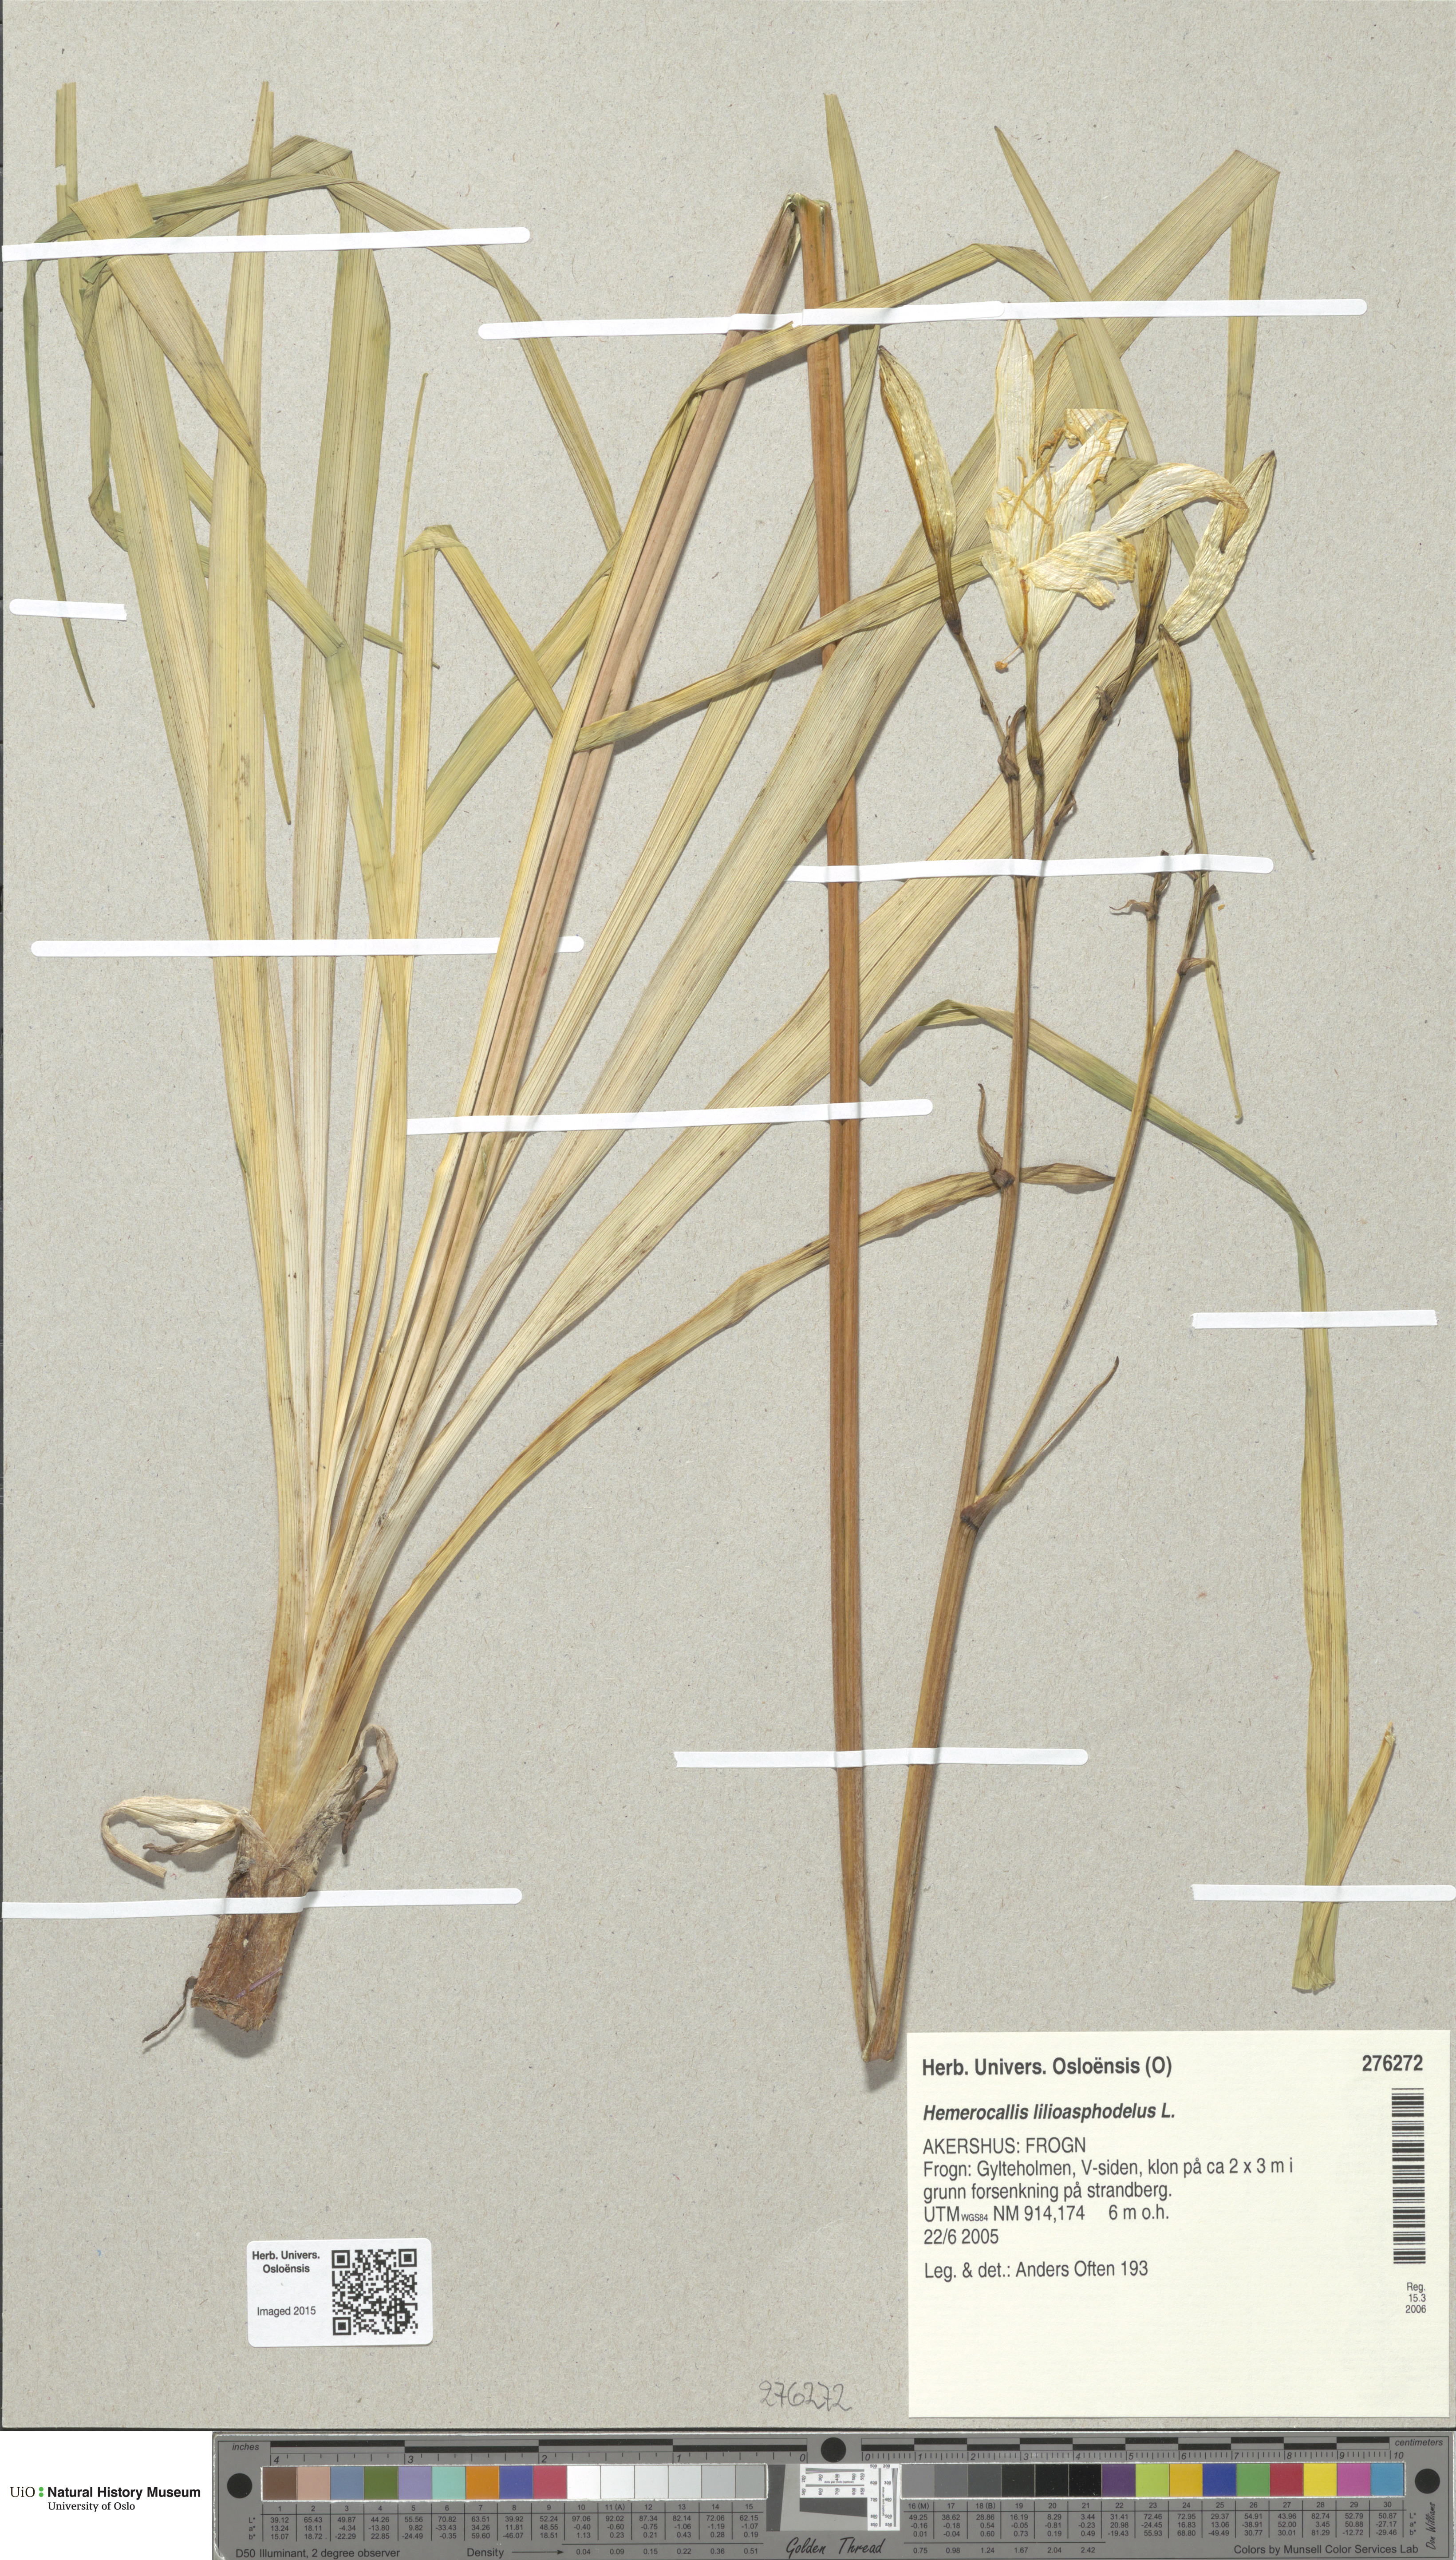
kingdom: Plantae
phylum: Tracheophyta
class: Liliopsida
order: Asparagales
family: Asphodelaceae
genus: Hemerocallis
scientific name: Hemerocallis lilioasphodelus
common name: Yellow day-lily
